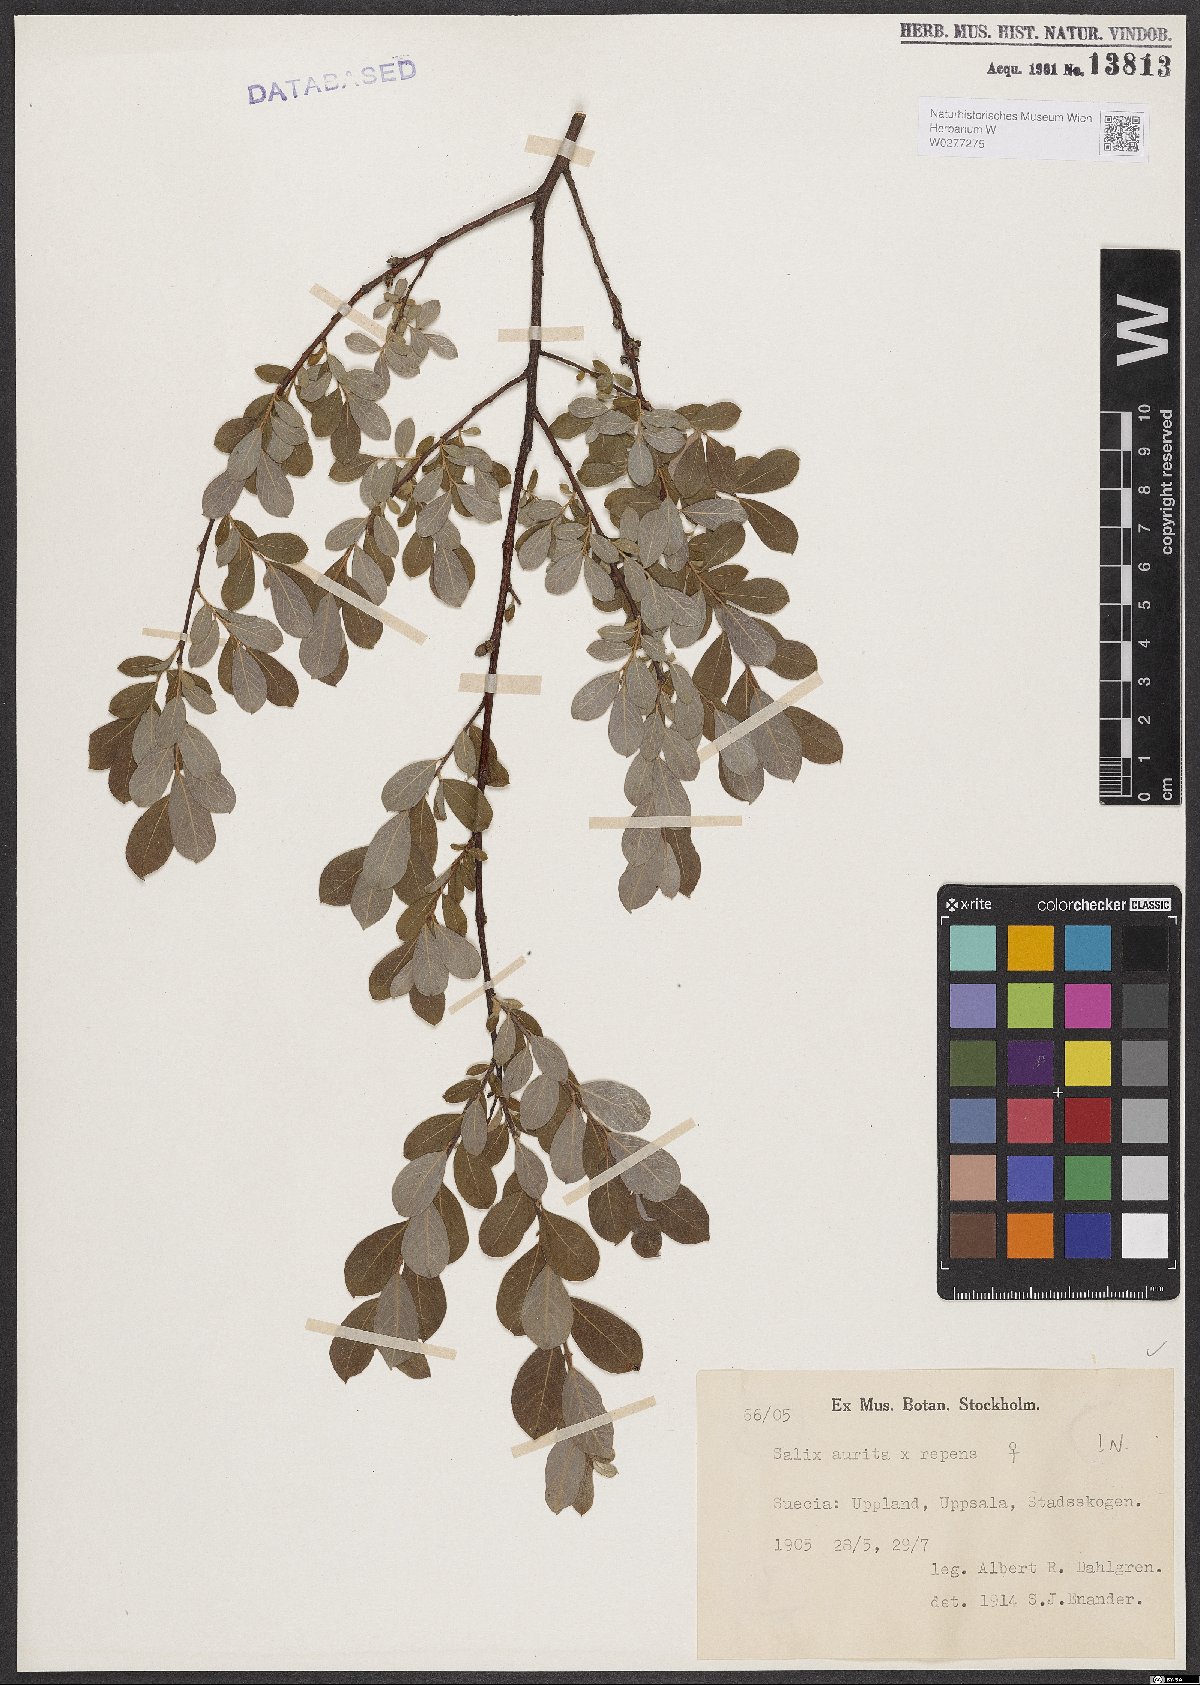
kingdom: Plantae
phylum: Tracheophyta
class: Magnoliopsida
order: Malpighiales
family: Salicaceae
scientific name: Salicaceae
